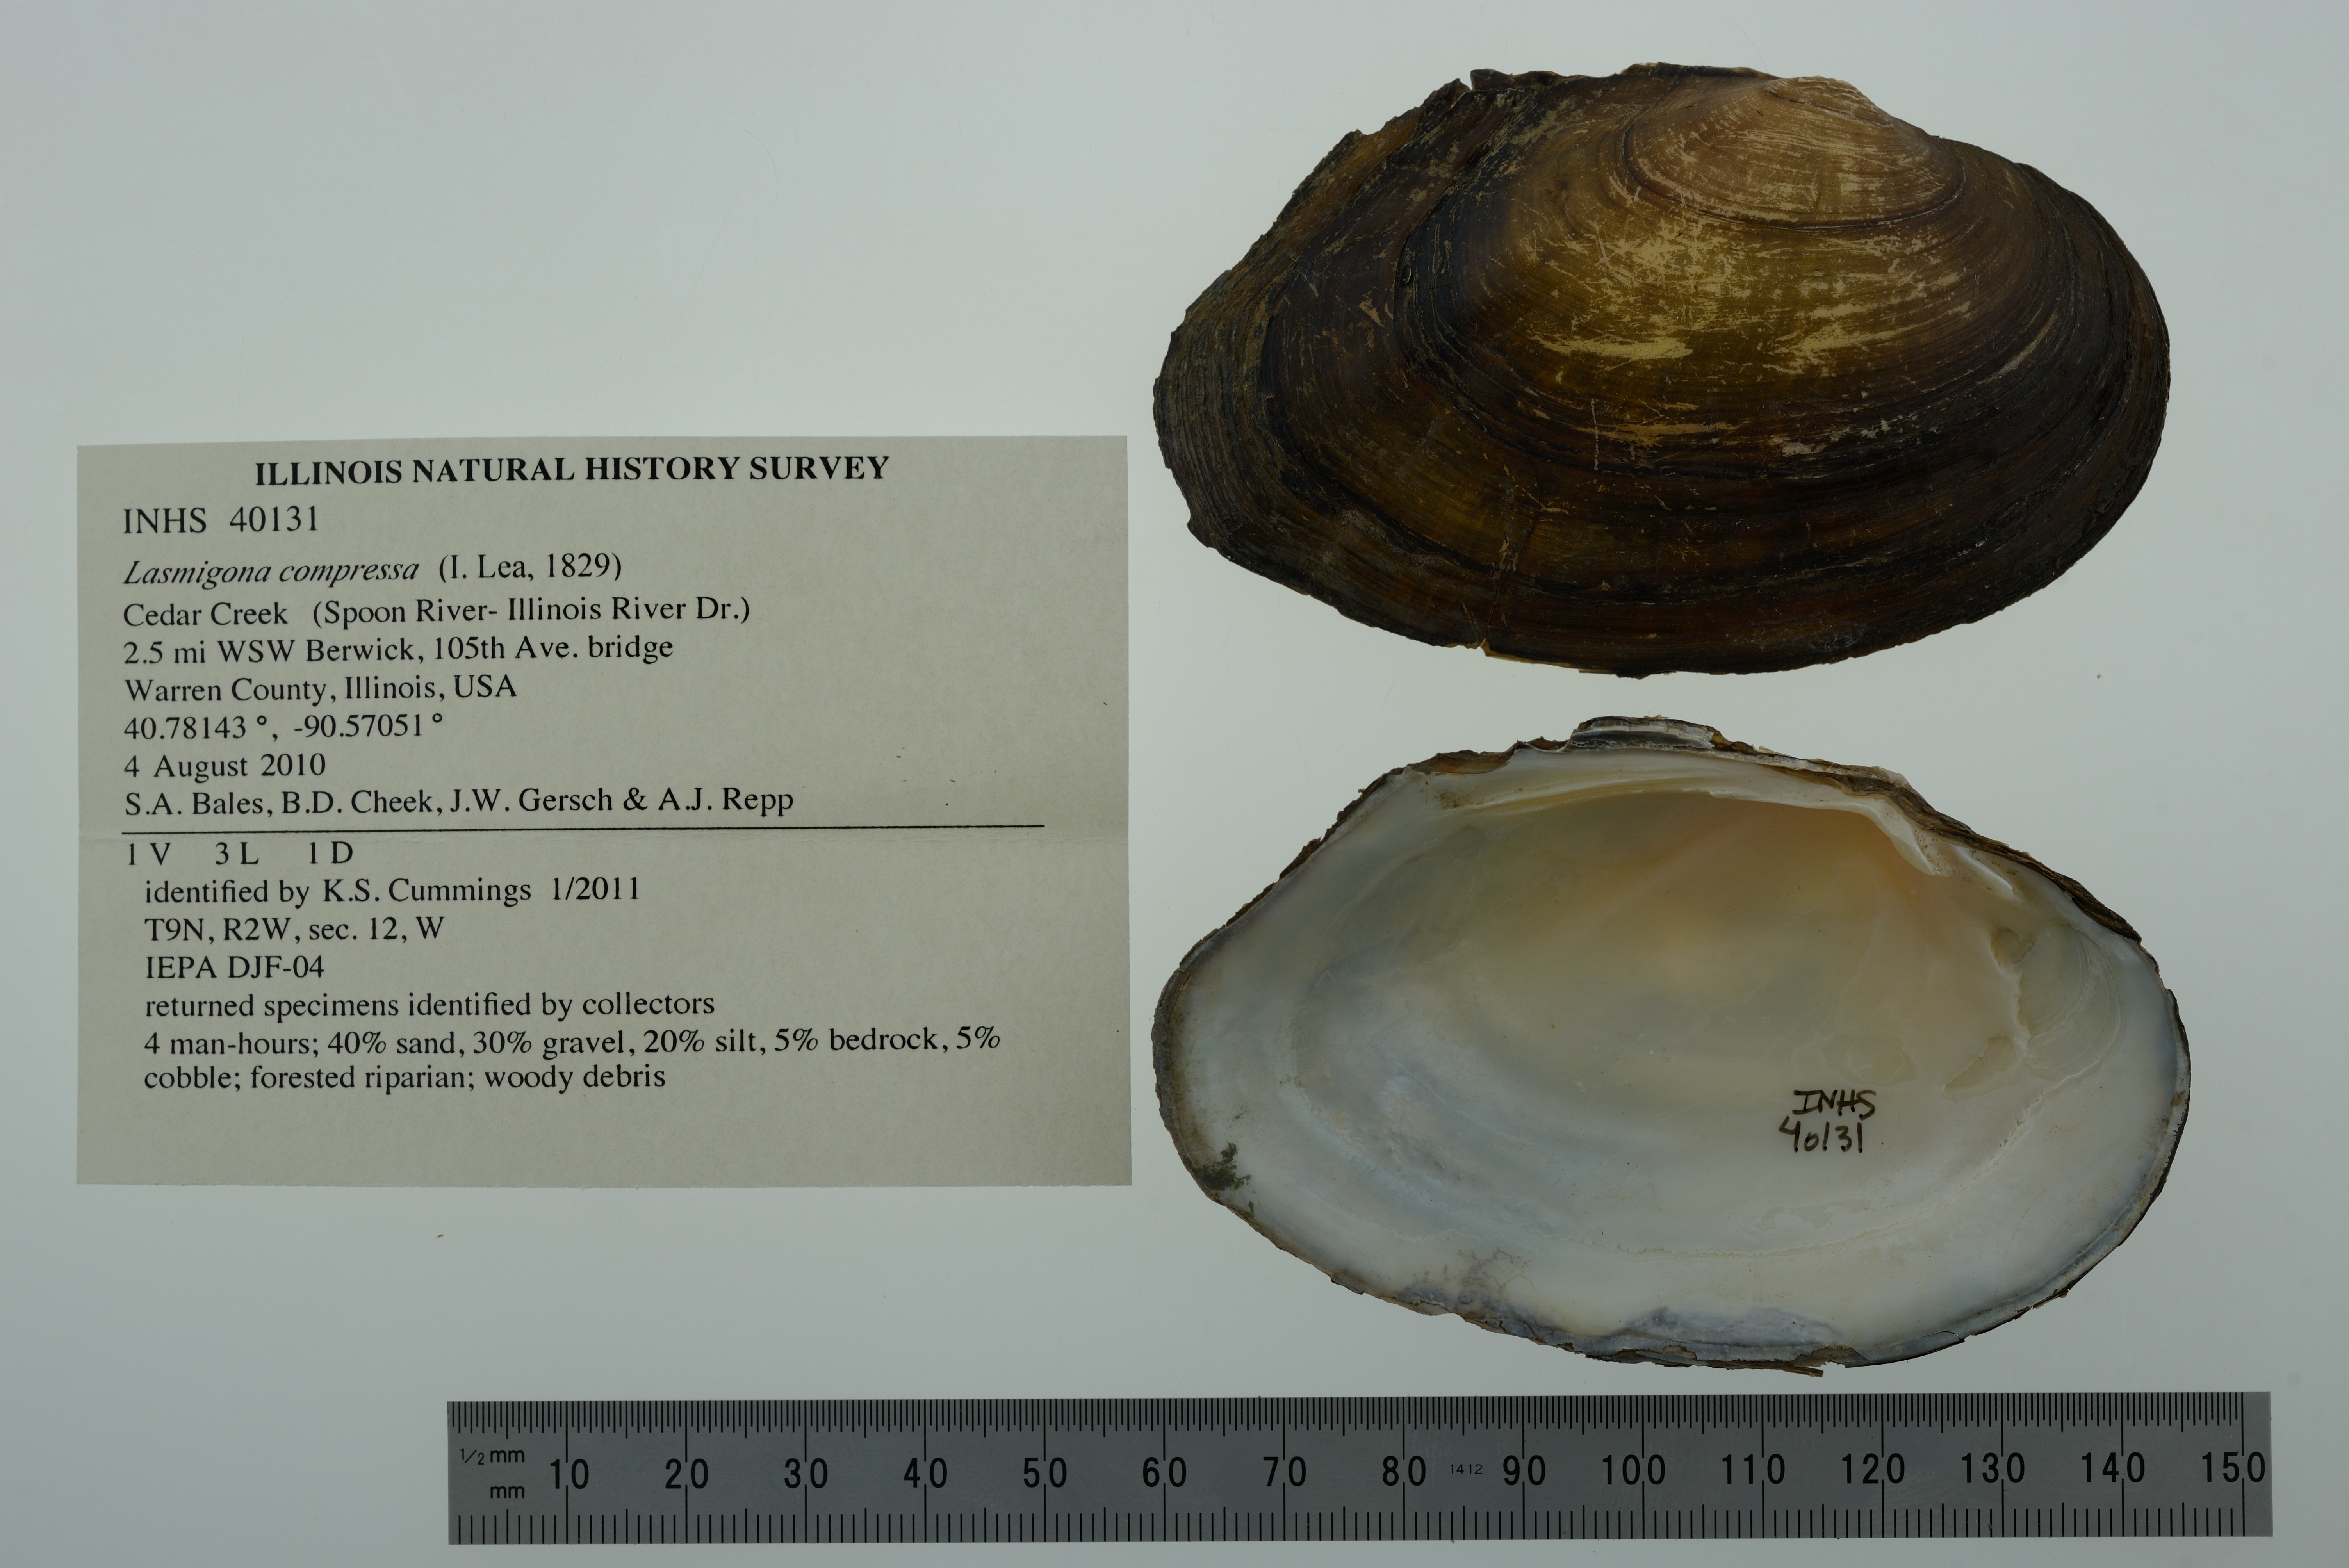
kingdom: Animalia
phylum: Mollusca
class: Bivalvia
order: Unionida
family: Unionidae
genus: Lasmigona
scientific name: Lasmigona compressa
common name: Creek heelsplitter
